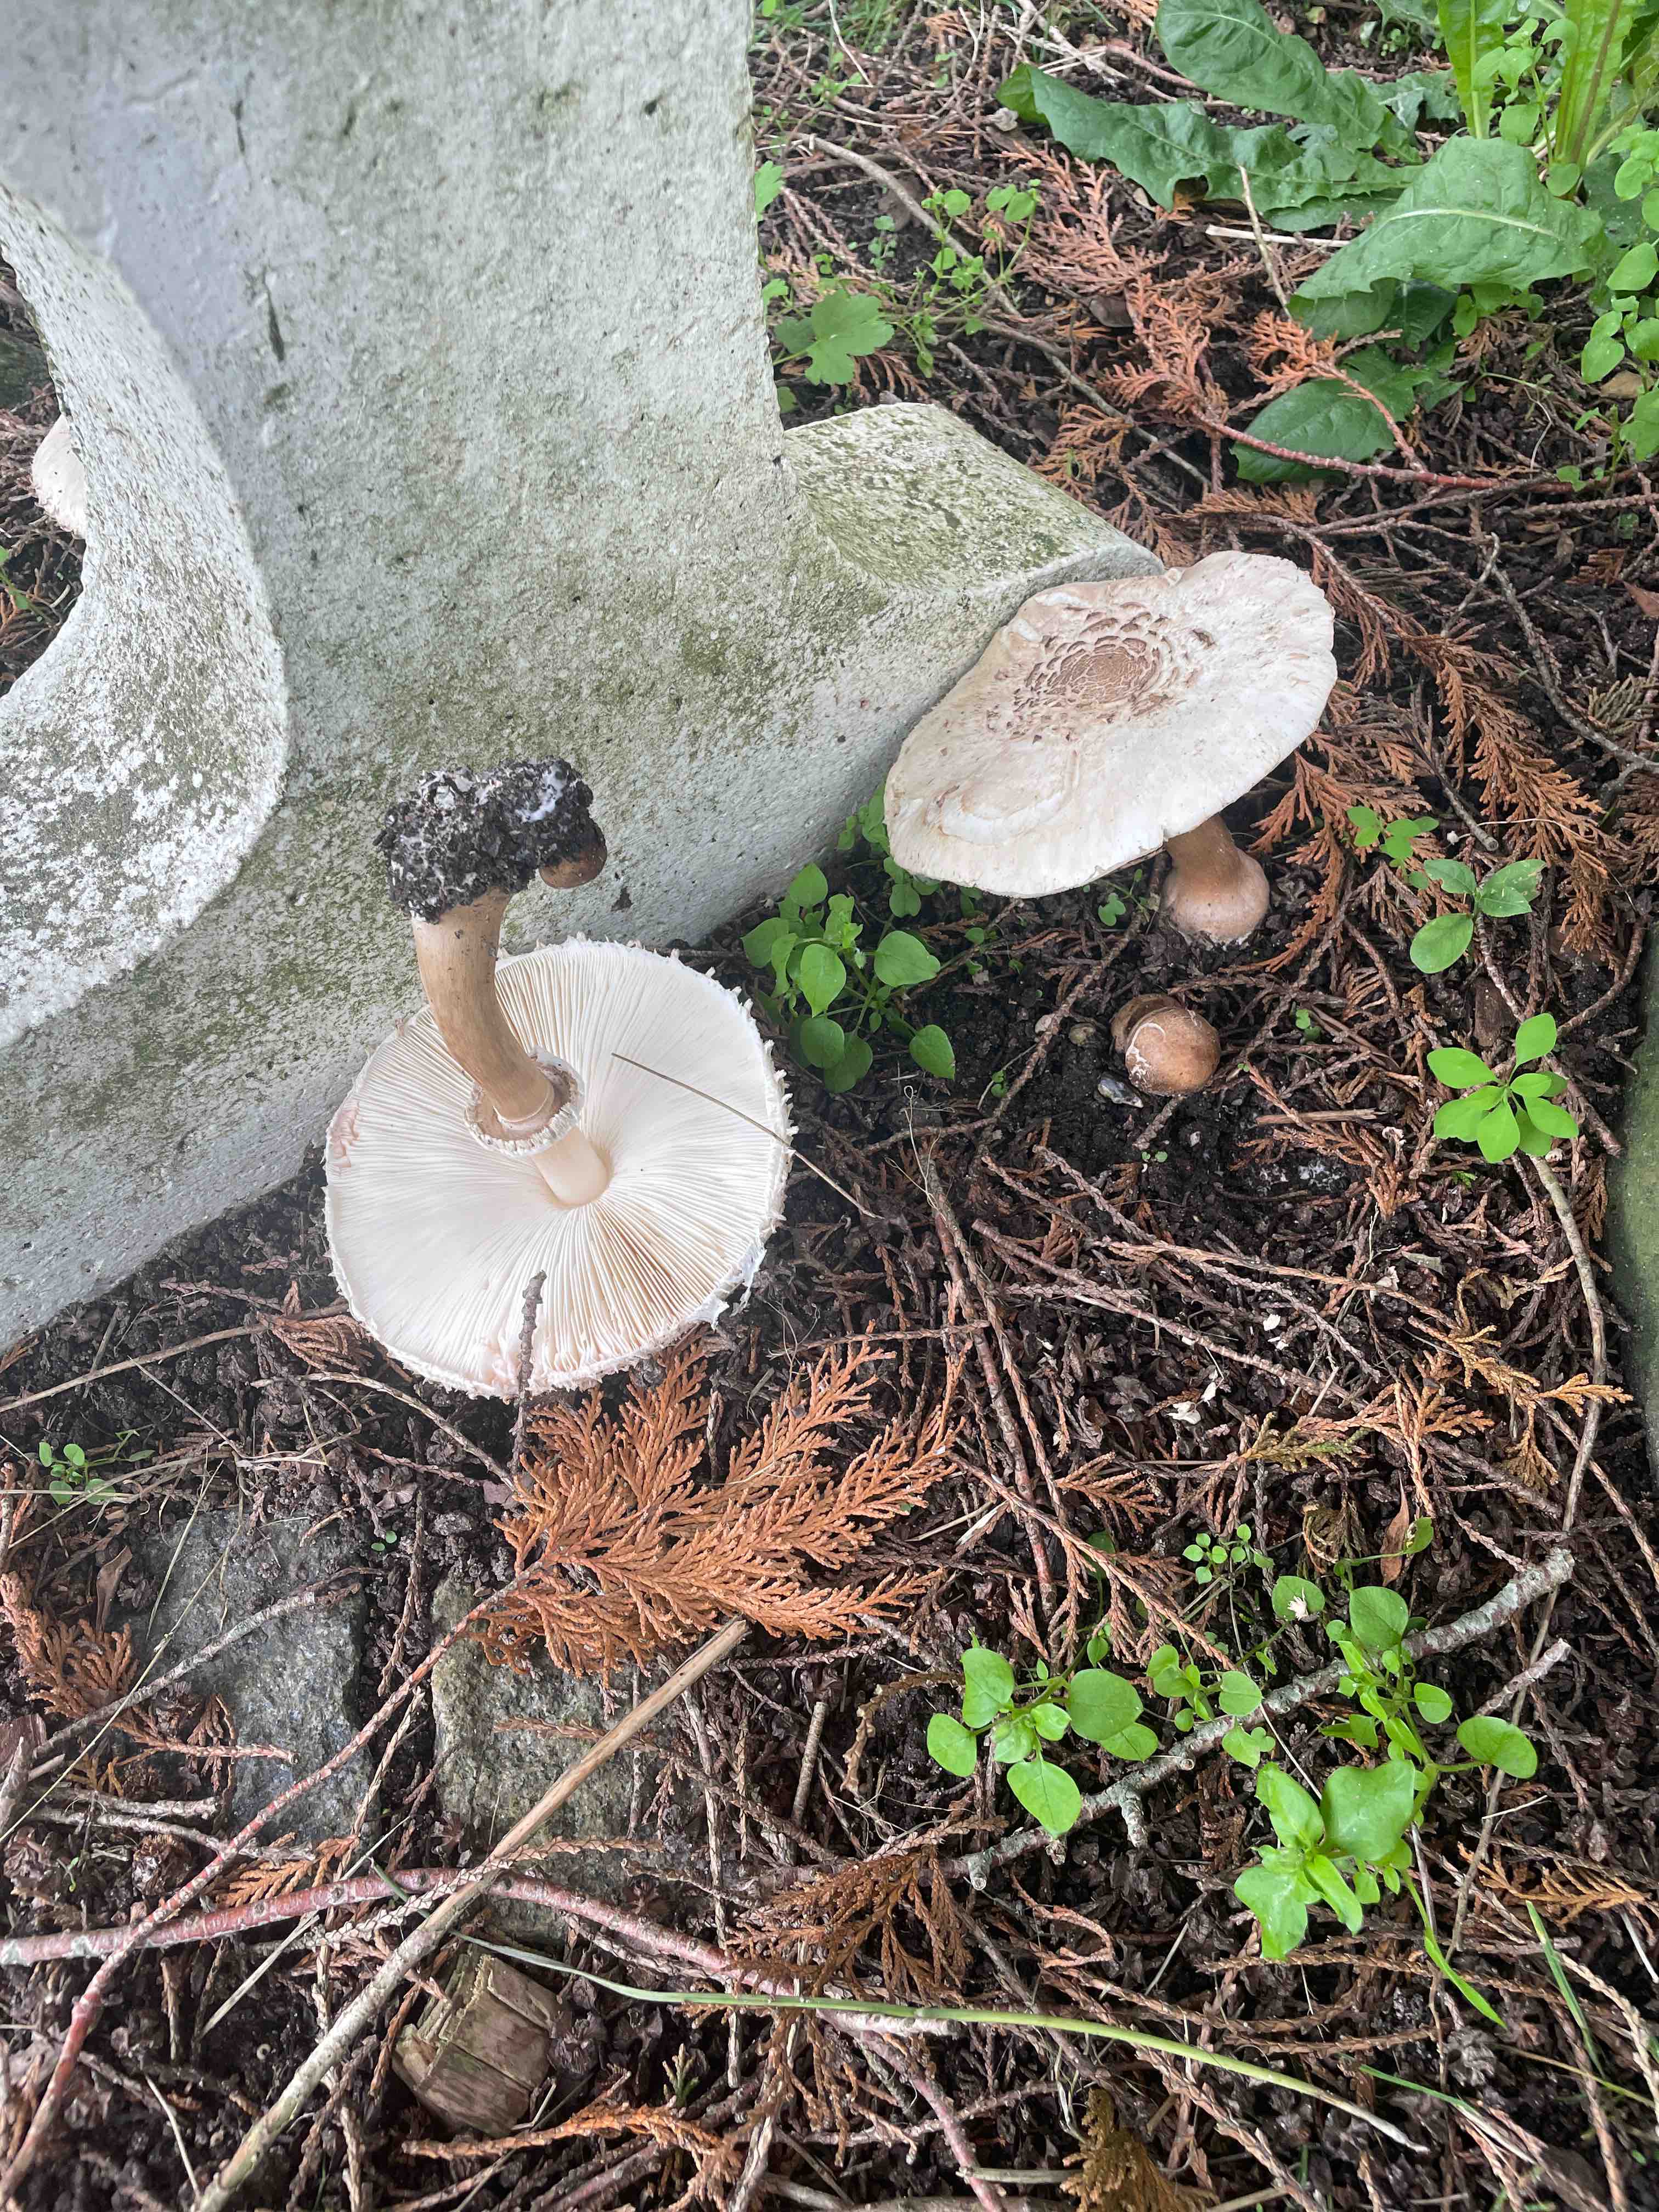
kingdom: Fungi
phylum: Basidiomycota
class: Agaricomycetes
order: Agaricales
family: Agaricaceae
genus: Chlorophyllum
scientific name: Chlorophyllum
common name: rabarberhat
